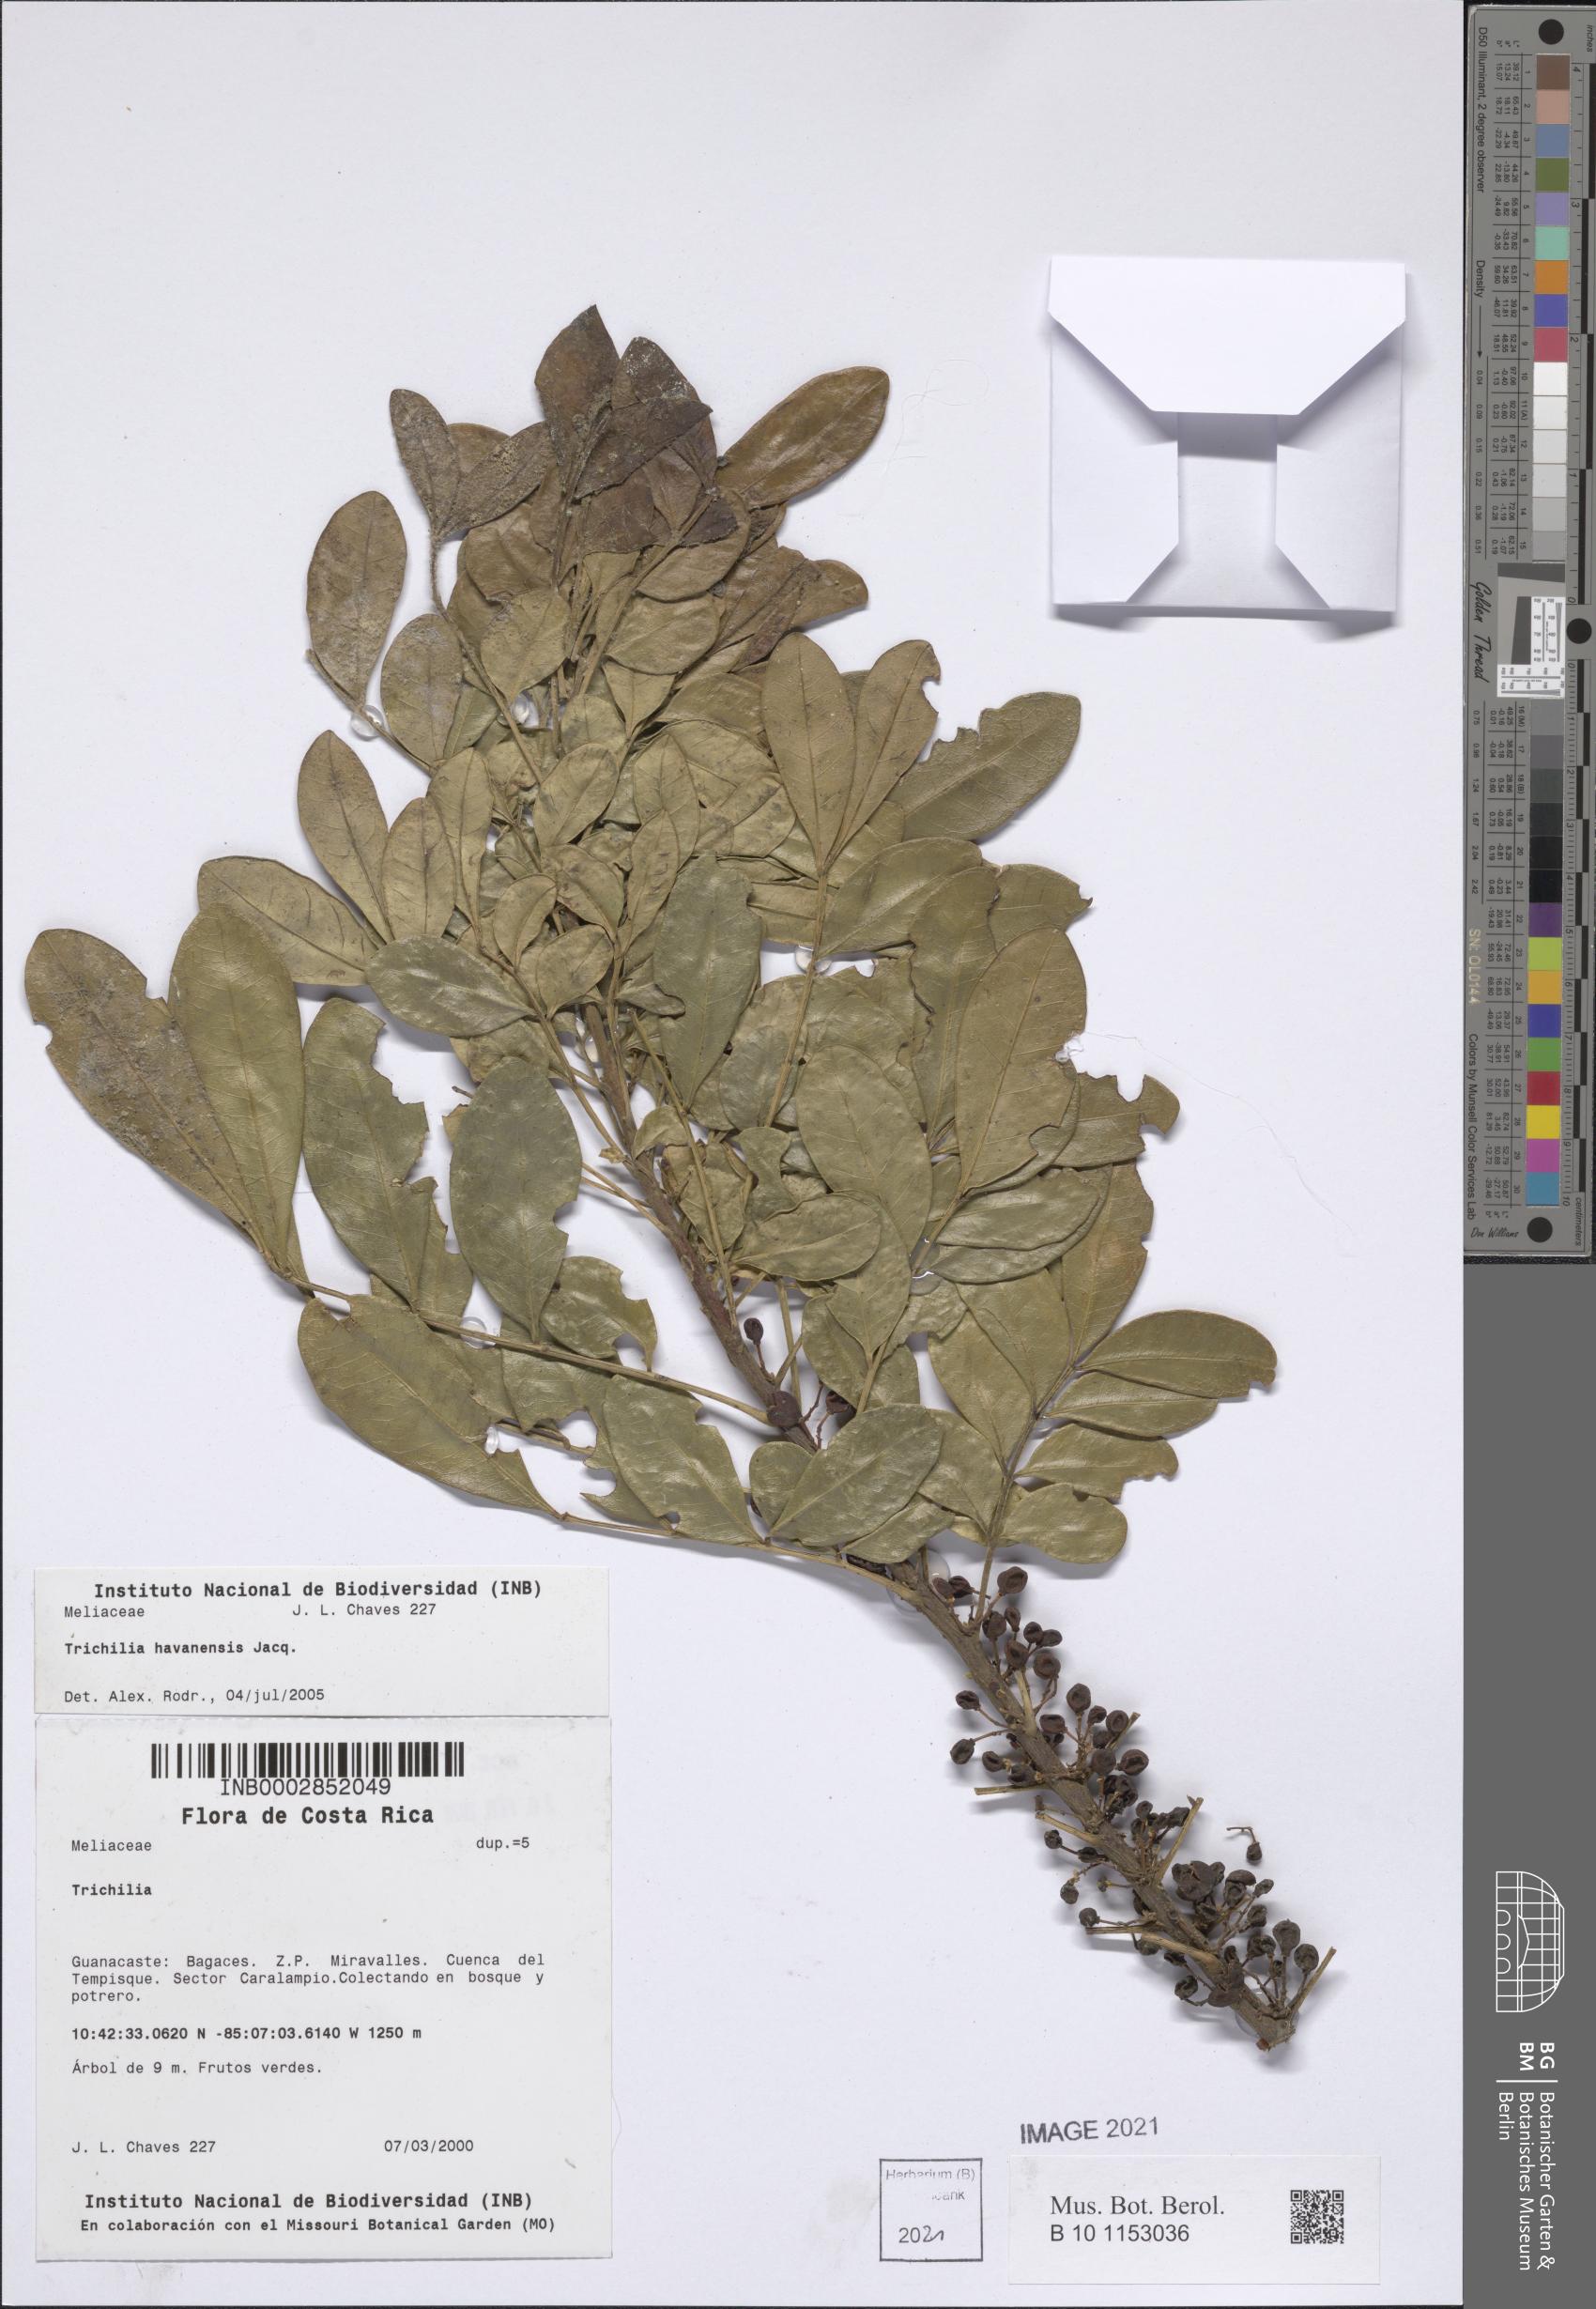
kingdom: Plantae
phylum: Tracheophyta
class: Magnoliopsida
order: Sapindales
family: Meliaceae
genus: Trichilia
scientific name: Trichilia havanensis
